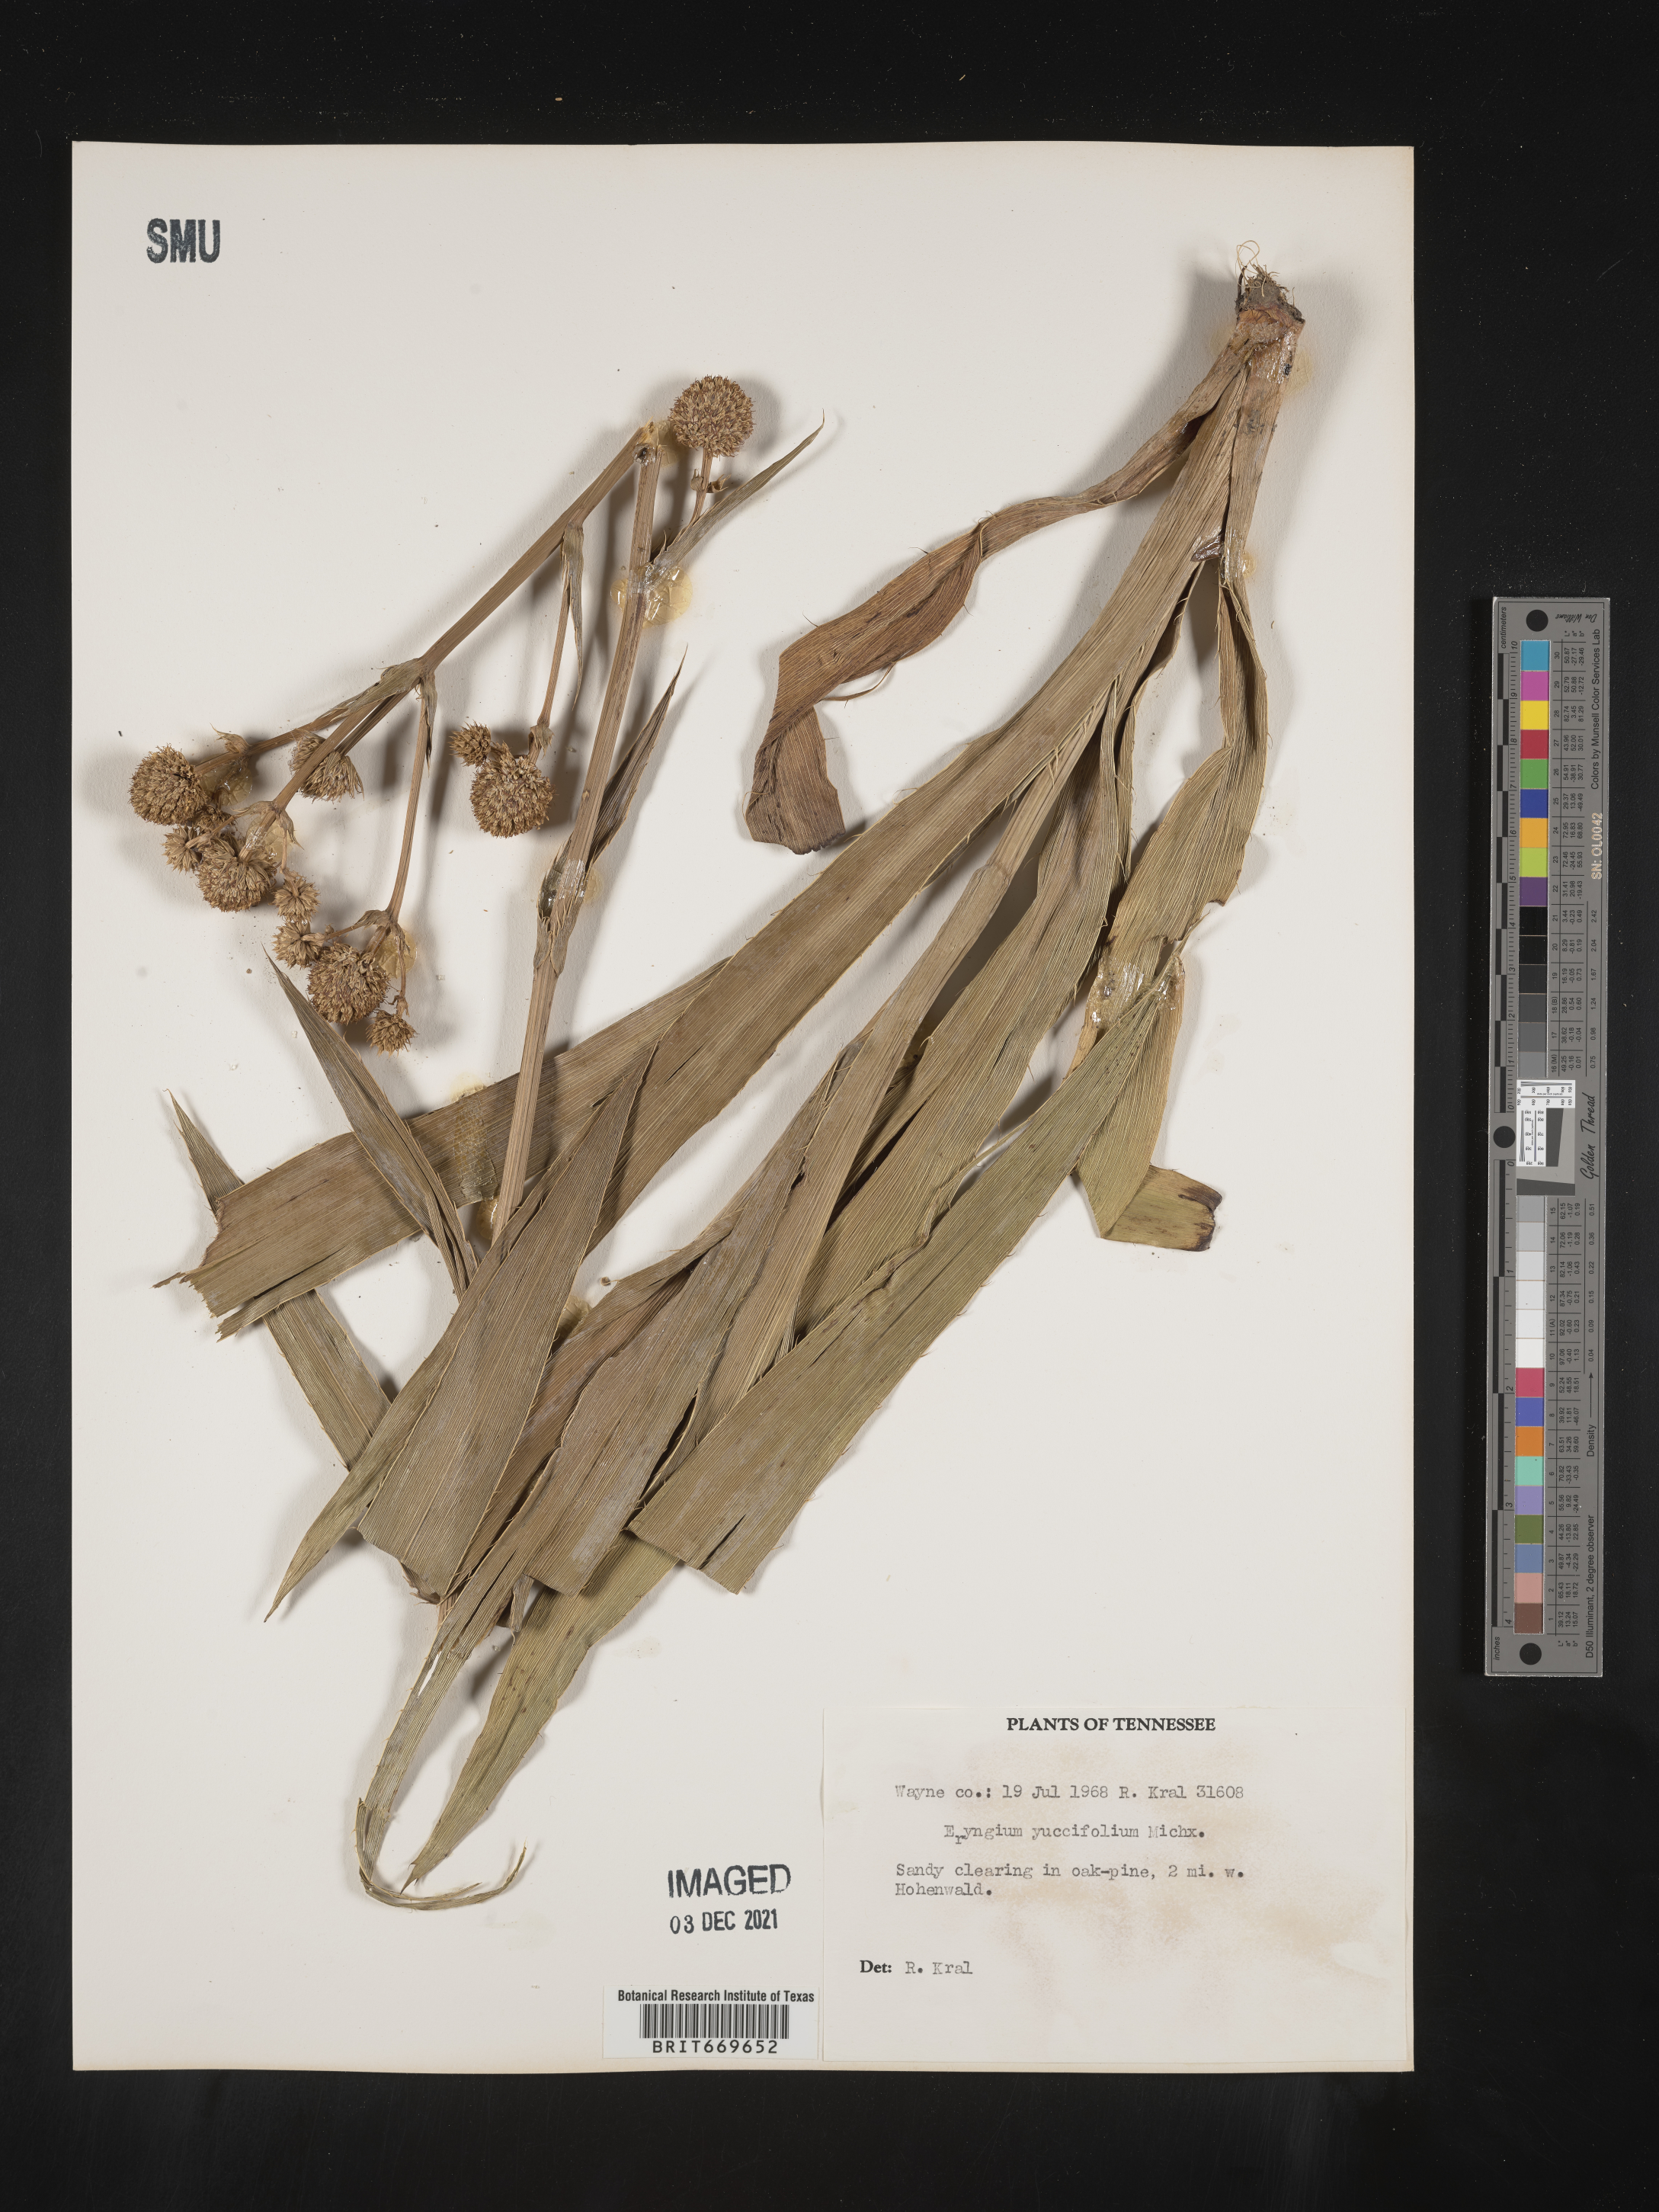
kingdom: Plantae
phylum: Tracheophyta
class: Magnoliopsida
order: Apiales
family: Apiaceae
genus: Eryngium
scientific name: Eryngium yuccifolium
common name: Button eryngo
